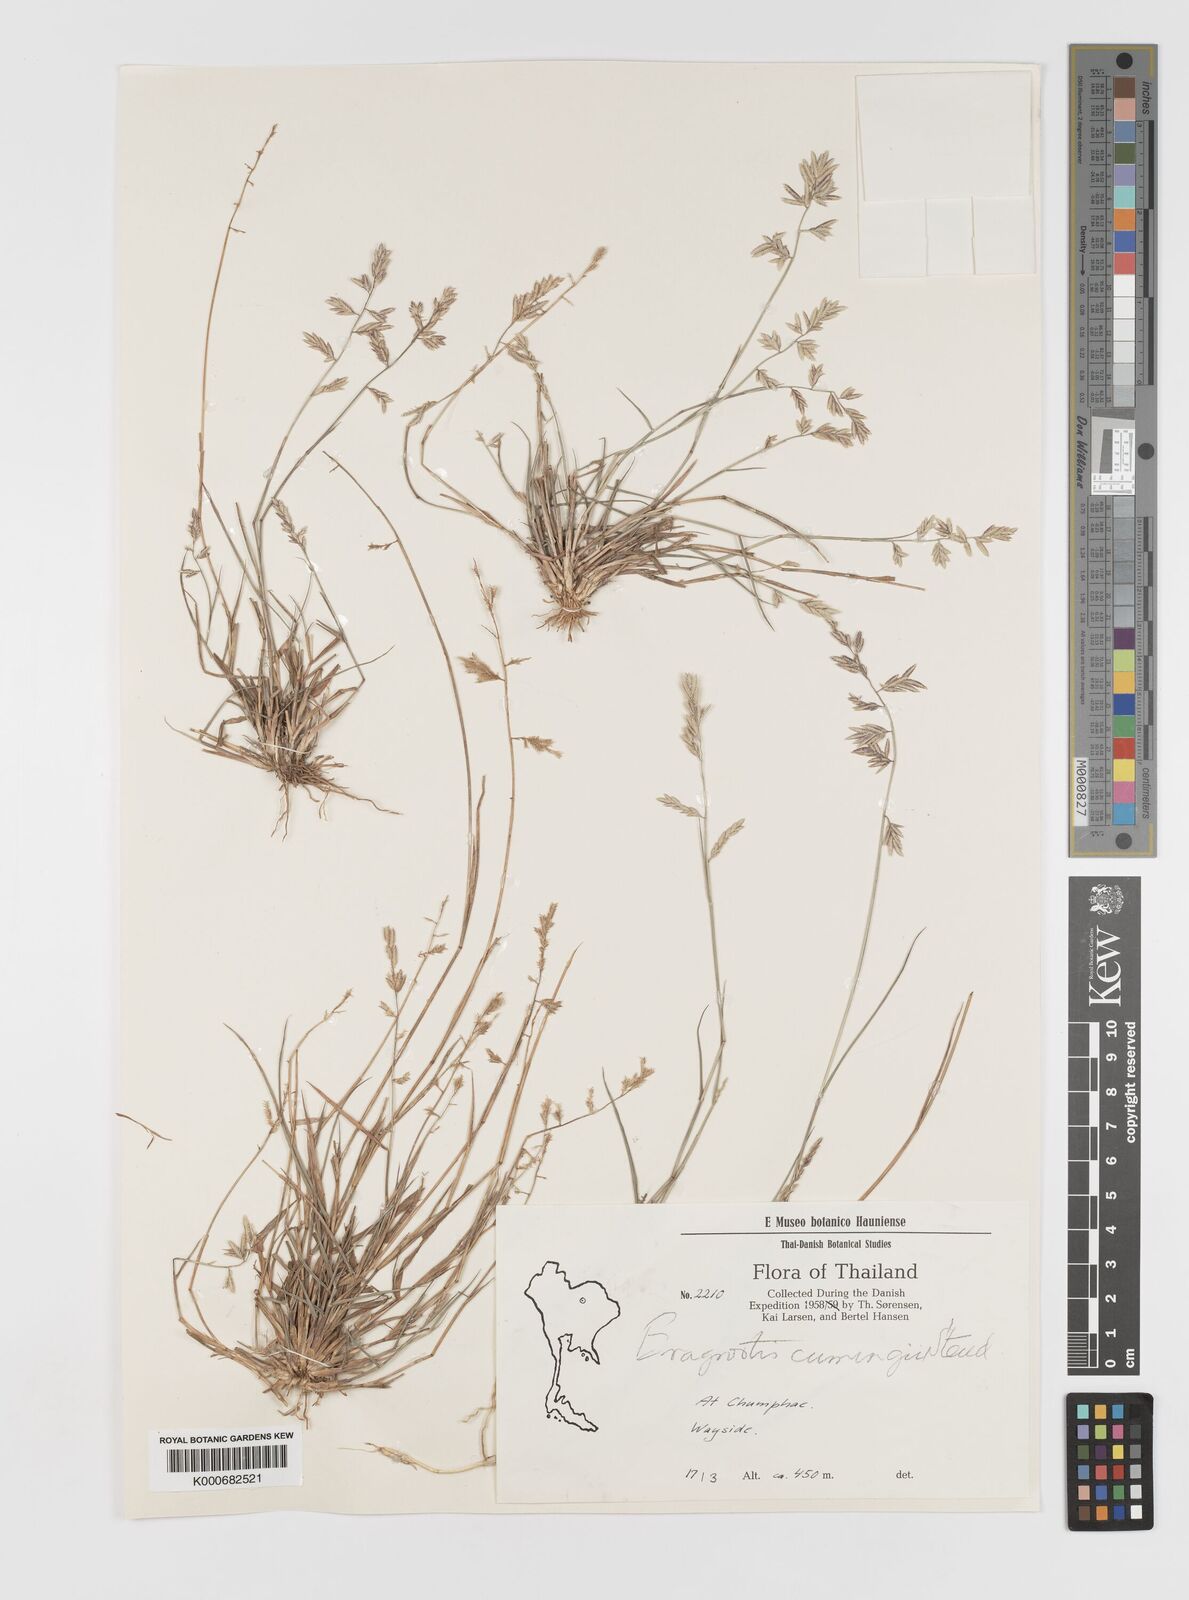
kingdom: Plantae
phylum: Tracheophyta
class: Liliopsida
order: Poales
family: Poaceae
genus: Eragrostis
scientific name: Eragrostis subsecunda
